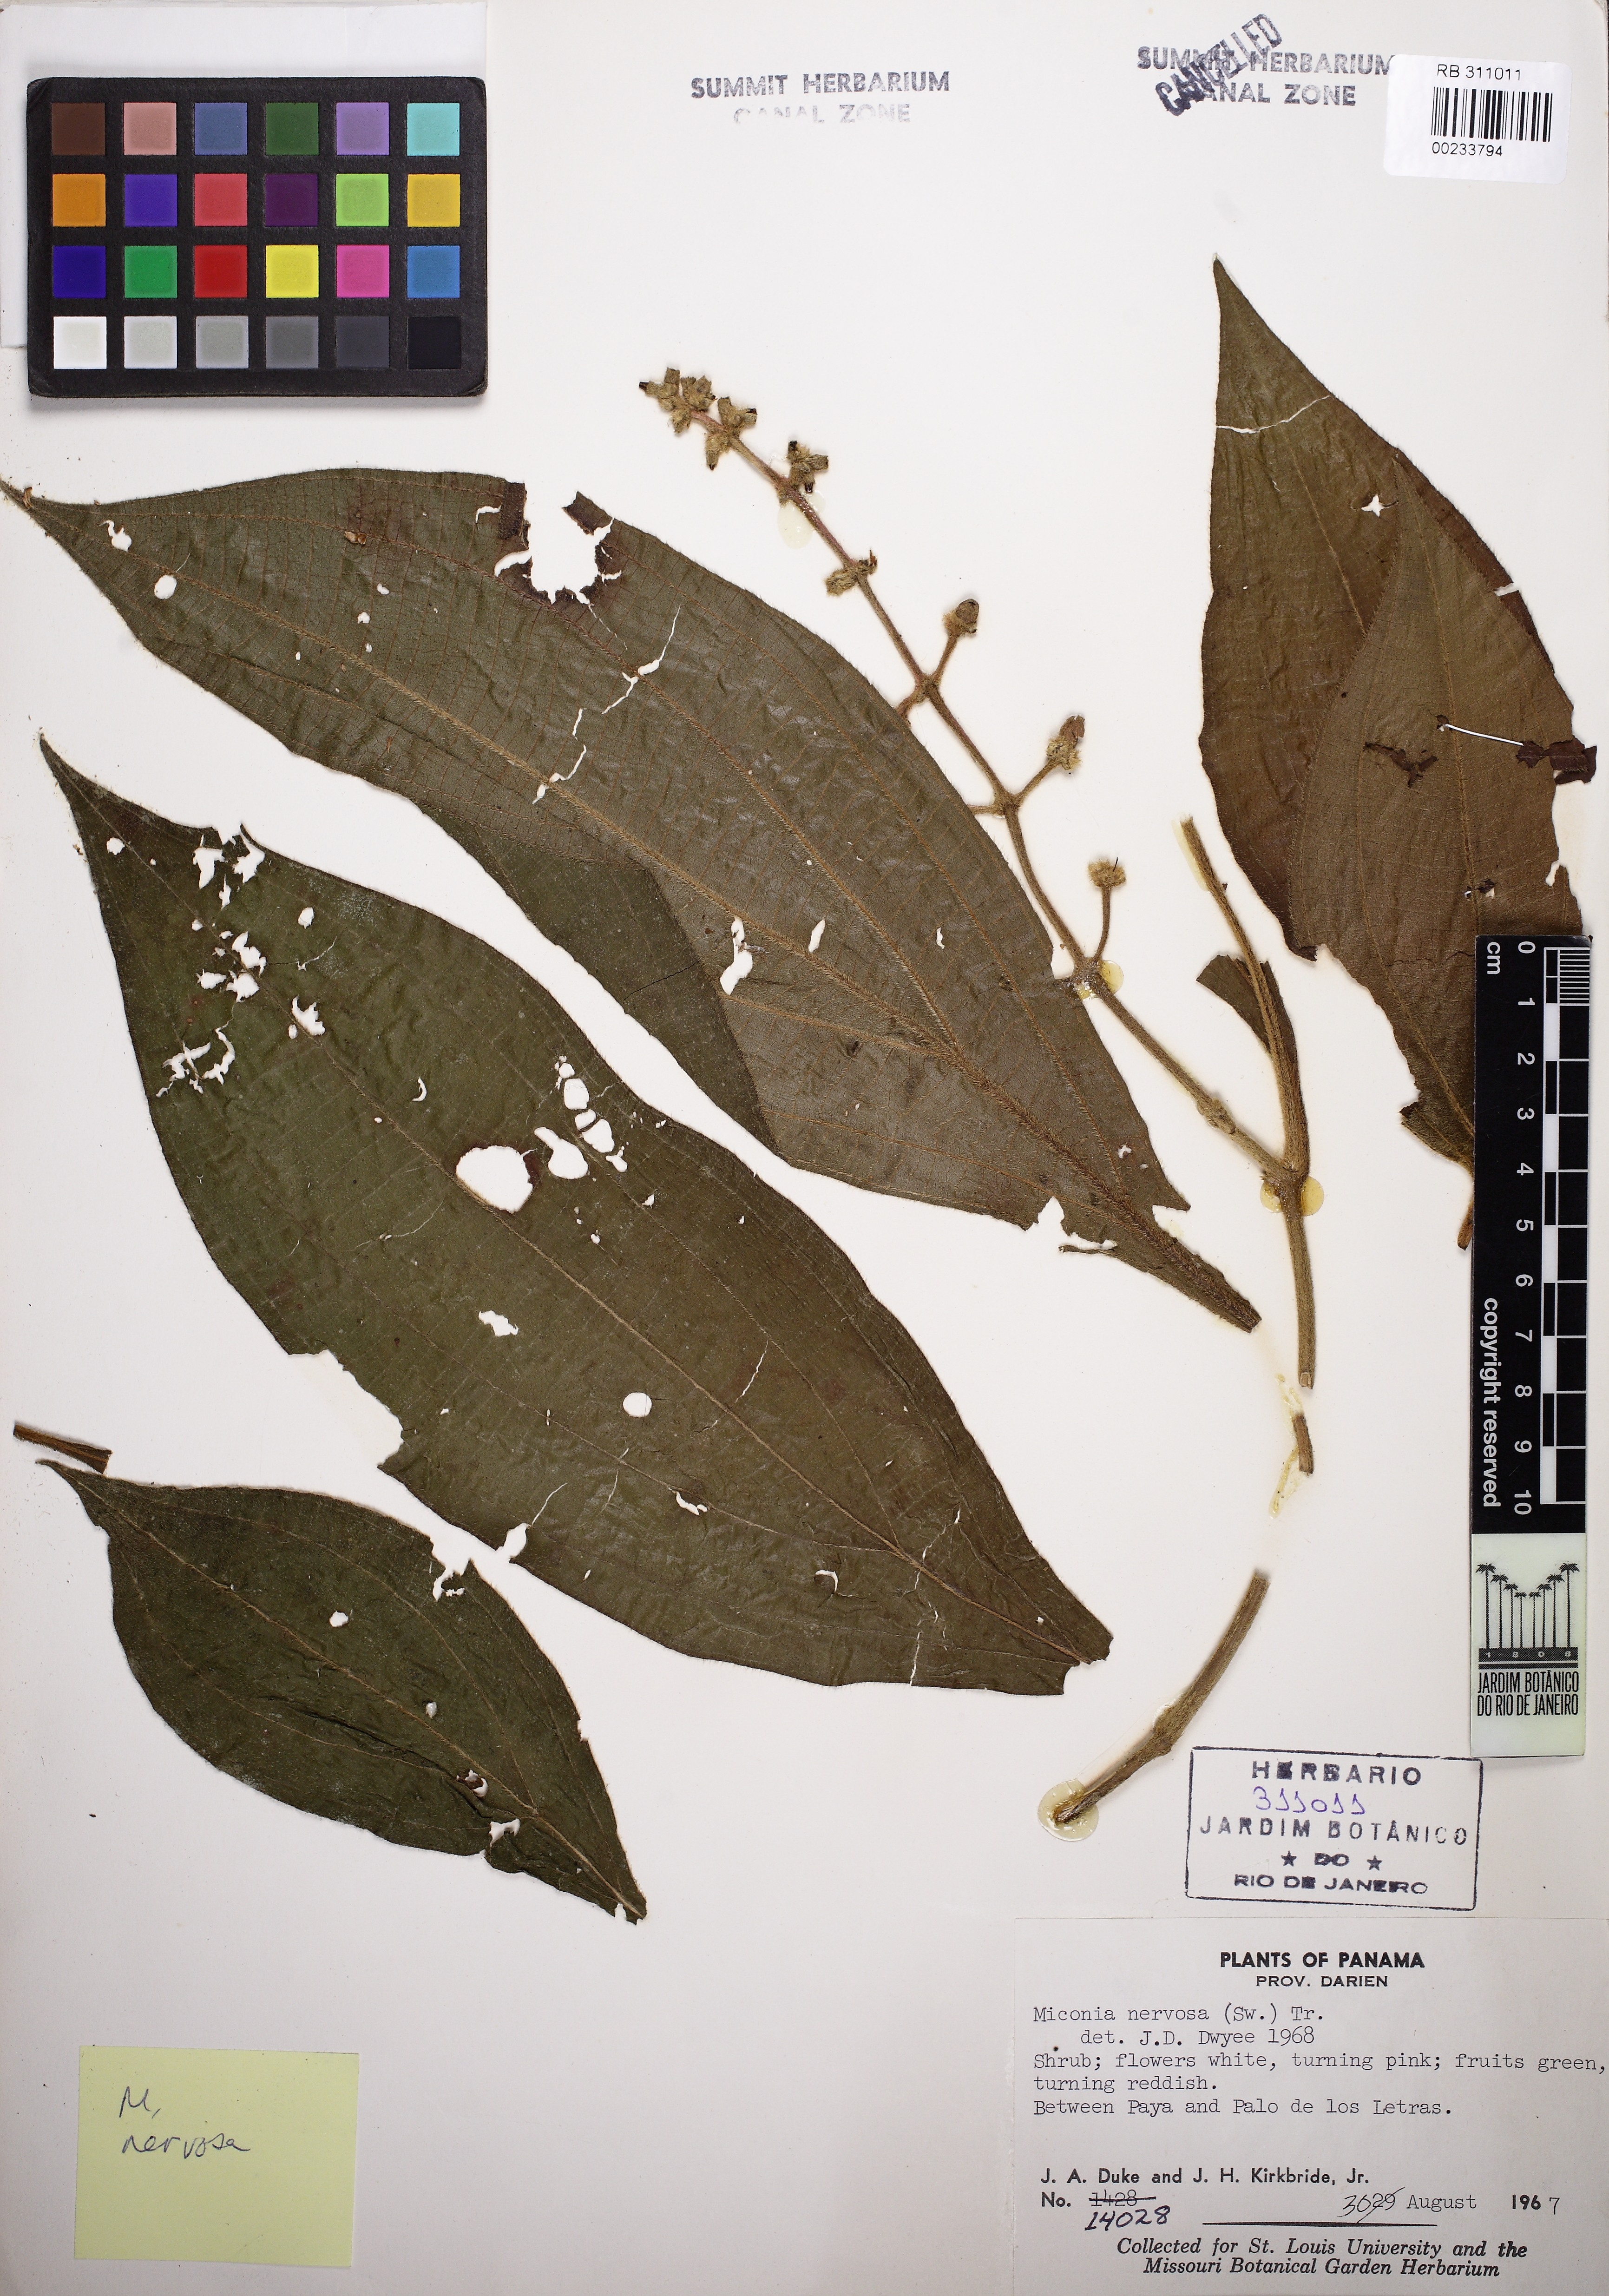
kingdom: Plantae
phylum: Tracheophyta
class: Magnoliopsida
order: Myrtales
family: Melastomataceae
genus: Miconia
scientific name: Miconia nervosa
